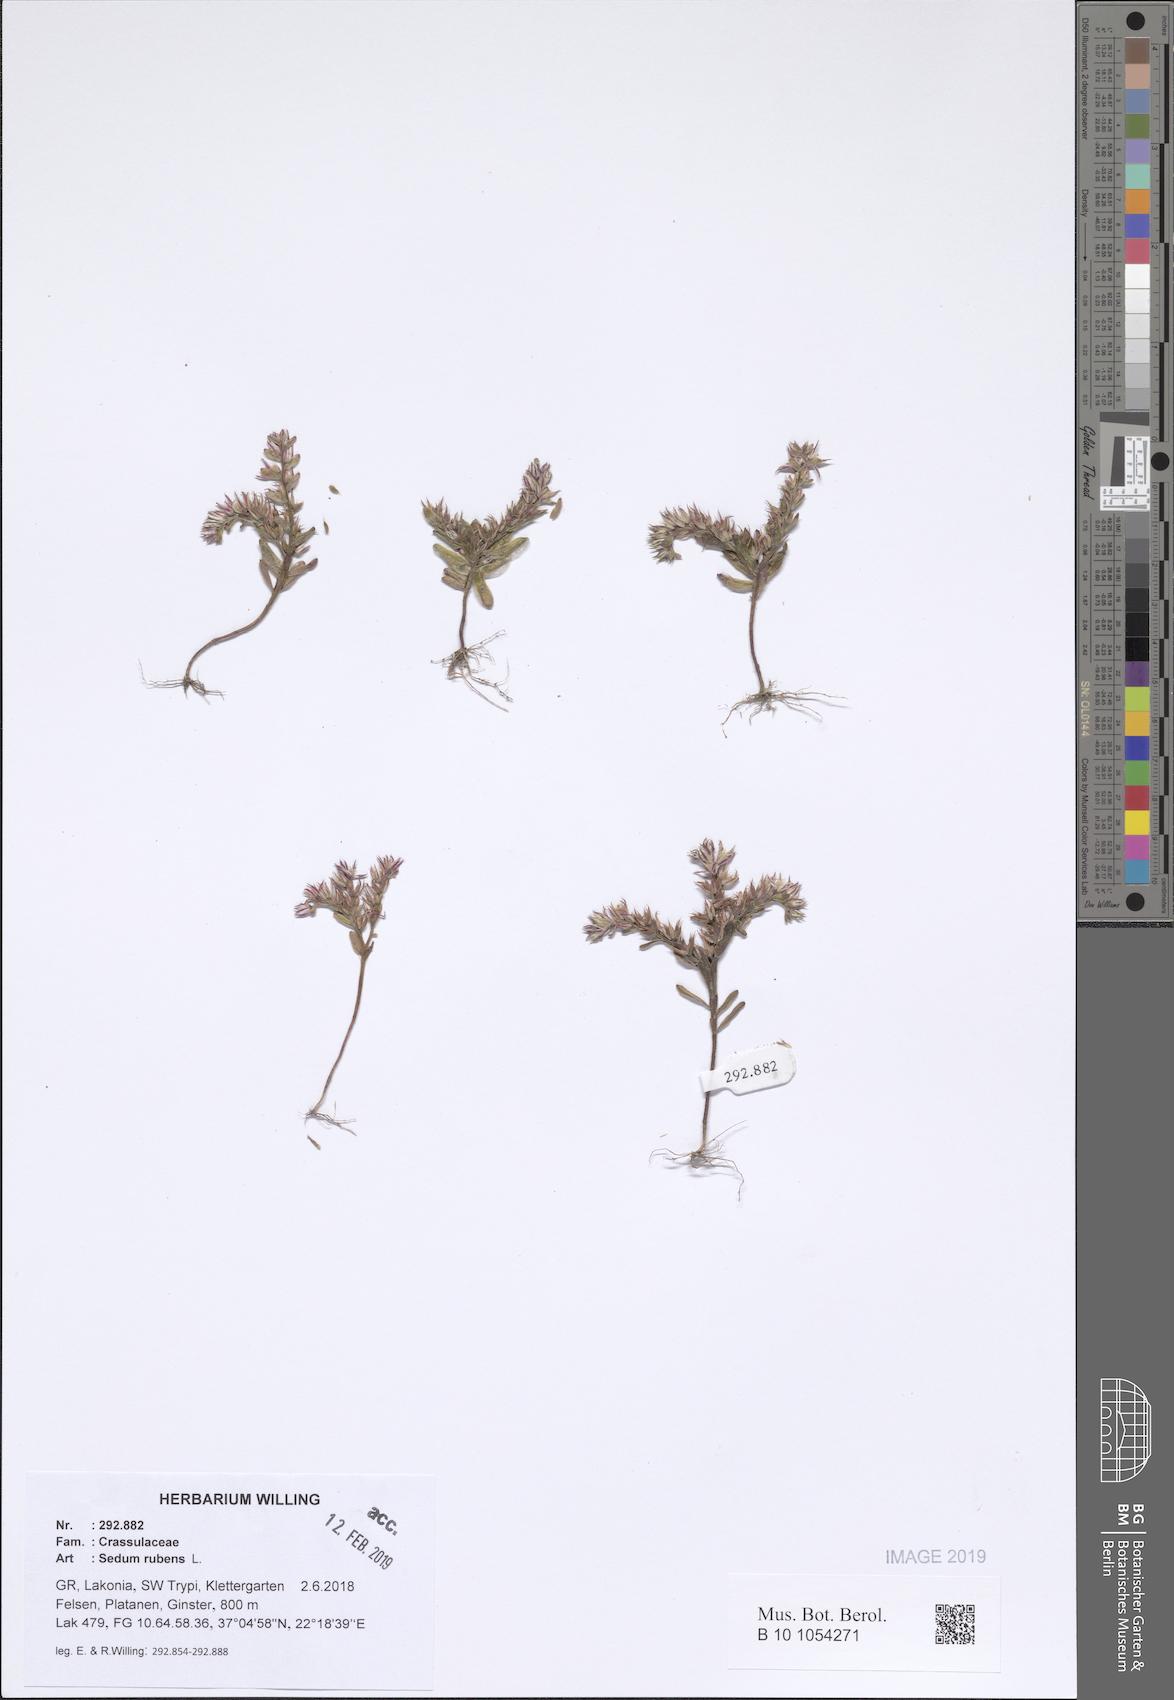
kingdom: Plantae
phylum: Tracheophyta
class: Magnoliopsida
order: Saxifragales
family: Crassulaceae
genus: Sedum
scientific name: Sedum rubens
